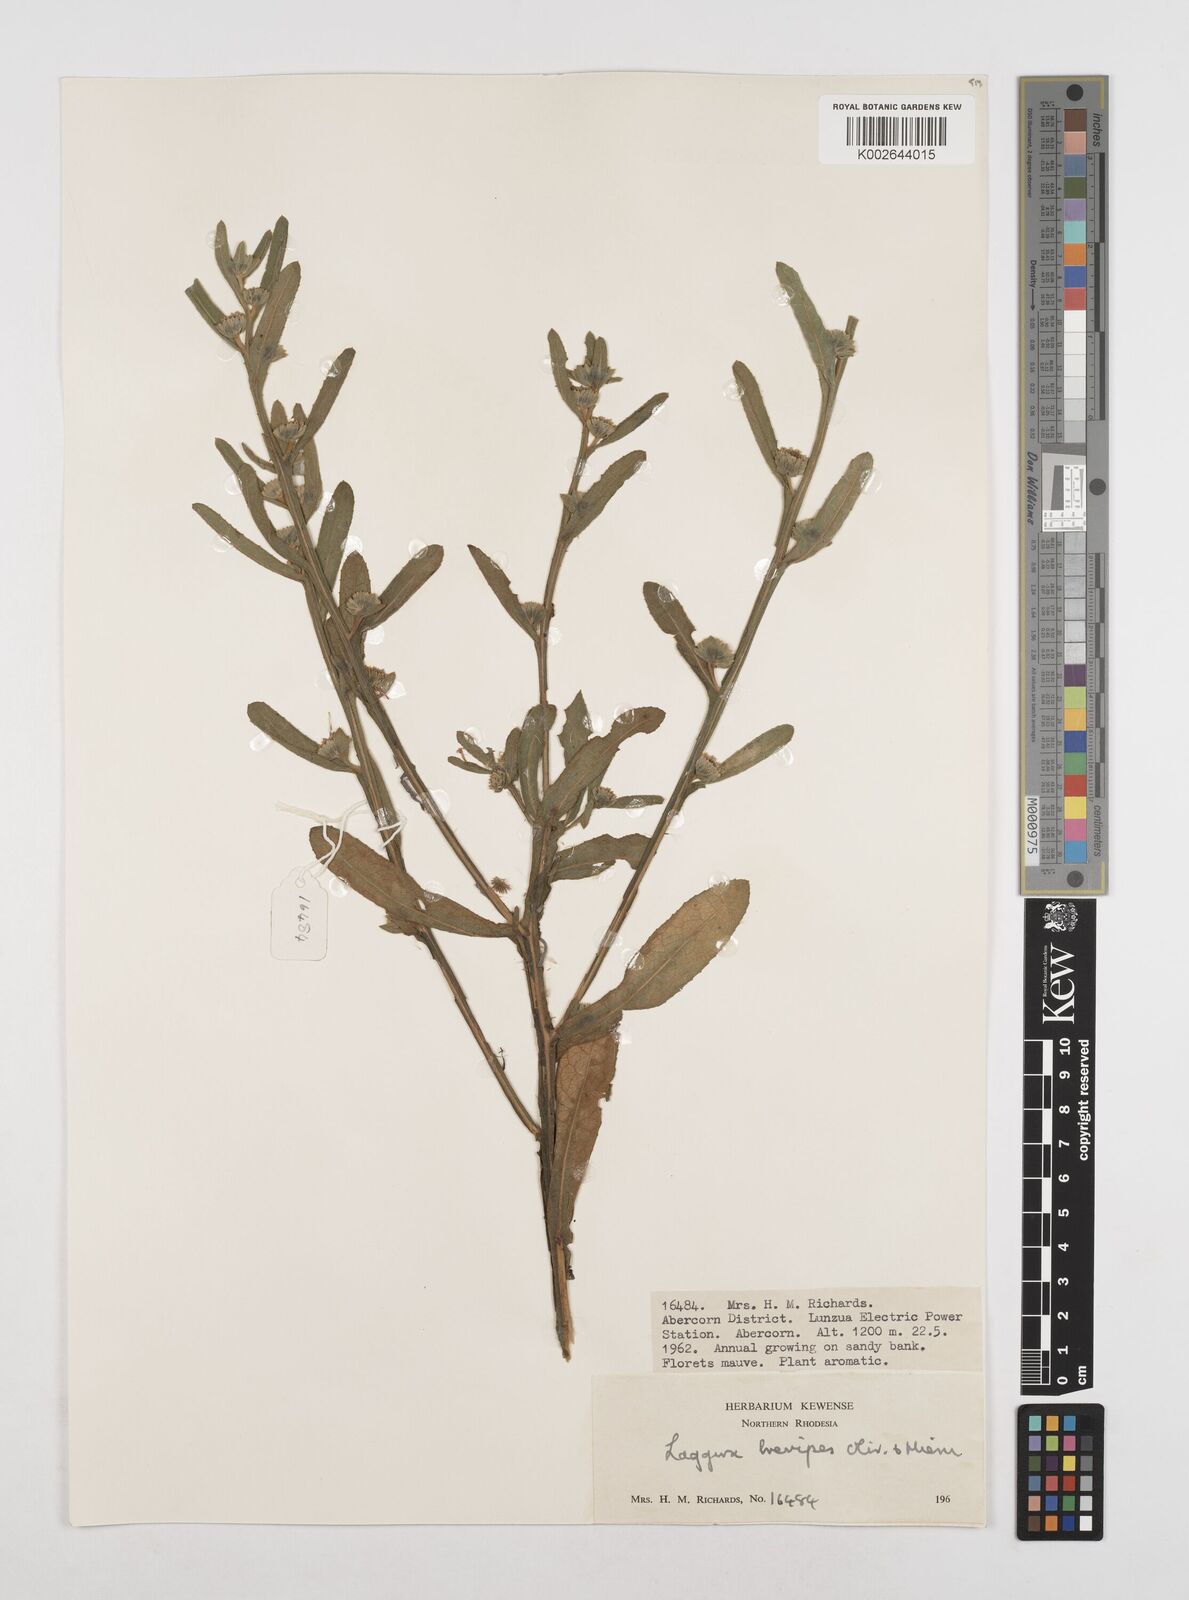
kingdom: Plantae
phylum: Tracheophyta
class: Magnoliopsida
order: Asterales
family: Asteraceae
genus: Laggera
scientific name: Laggera brevipes
